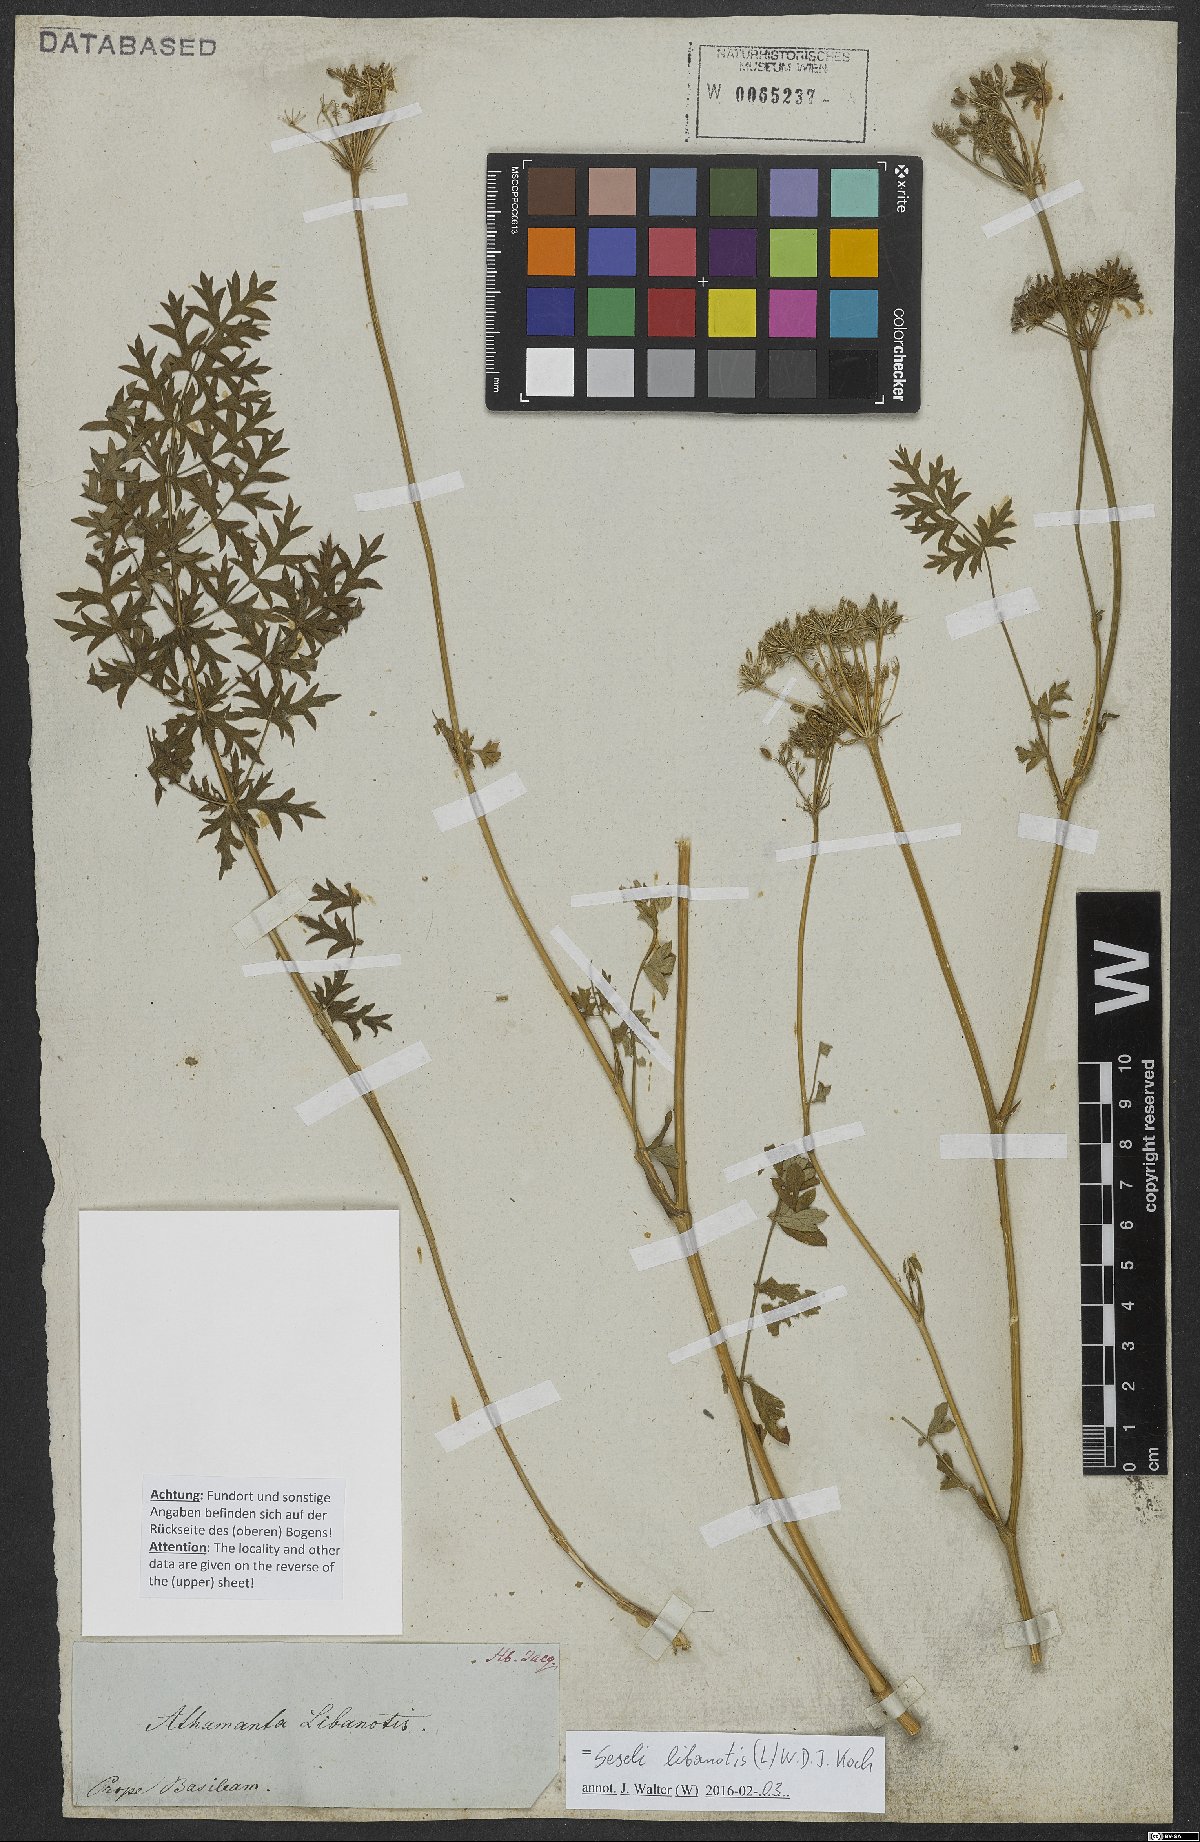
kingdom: Plantae
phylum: Tracheophyta
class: Magnoliopsida
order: Apiales
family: Apiaceae
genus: Seseli
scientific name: Seseli libanotis
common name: Mooncarrot
